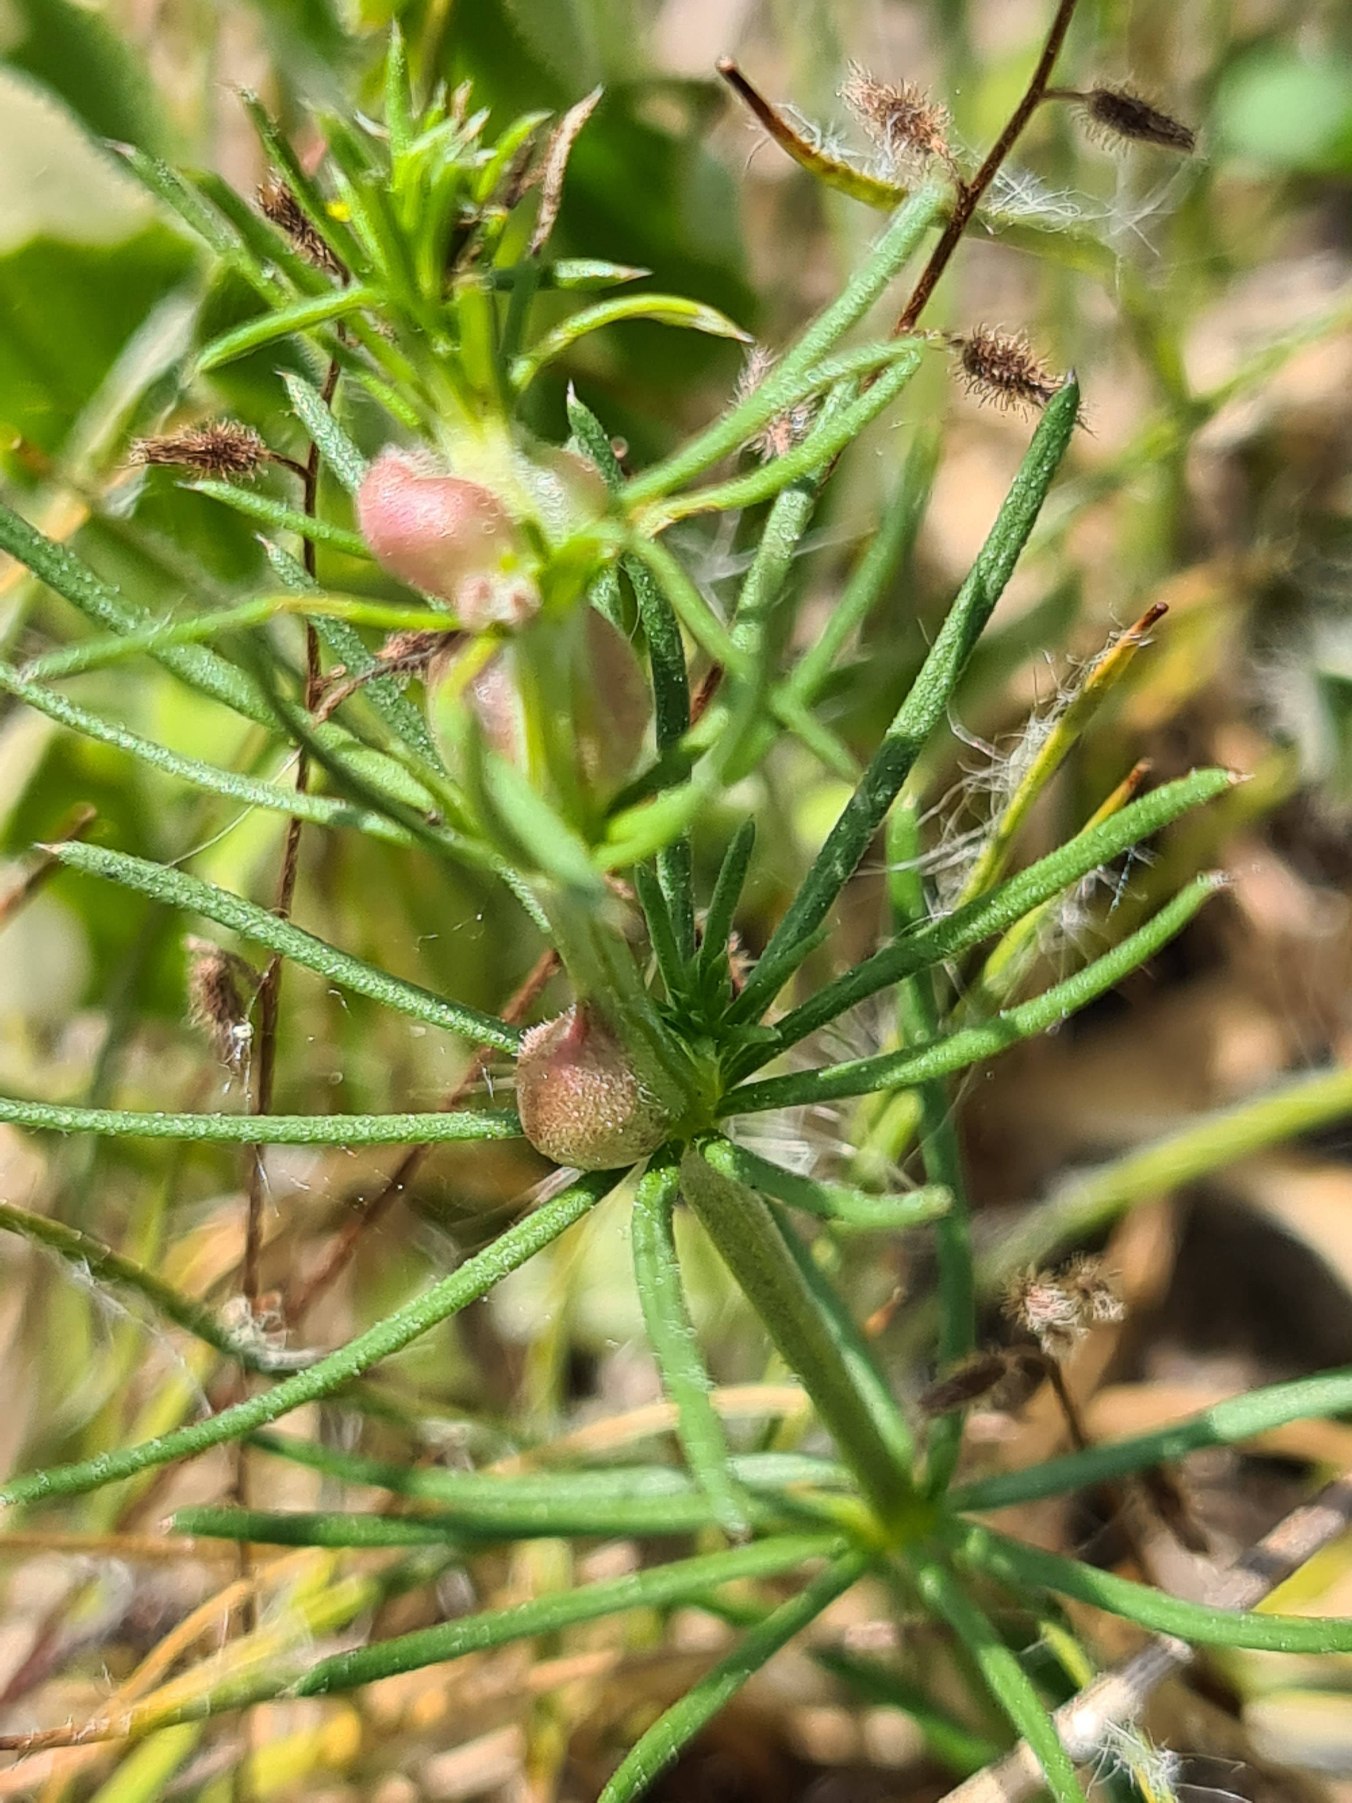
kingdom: Animalia
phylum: Arthropoda
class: Insecta
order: Diptera
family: Cecidomyiidae
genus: Geocrypta
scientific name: Geocrypta galii
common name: Snerrestængelgalmyg
